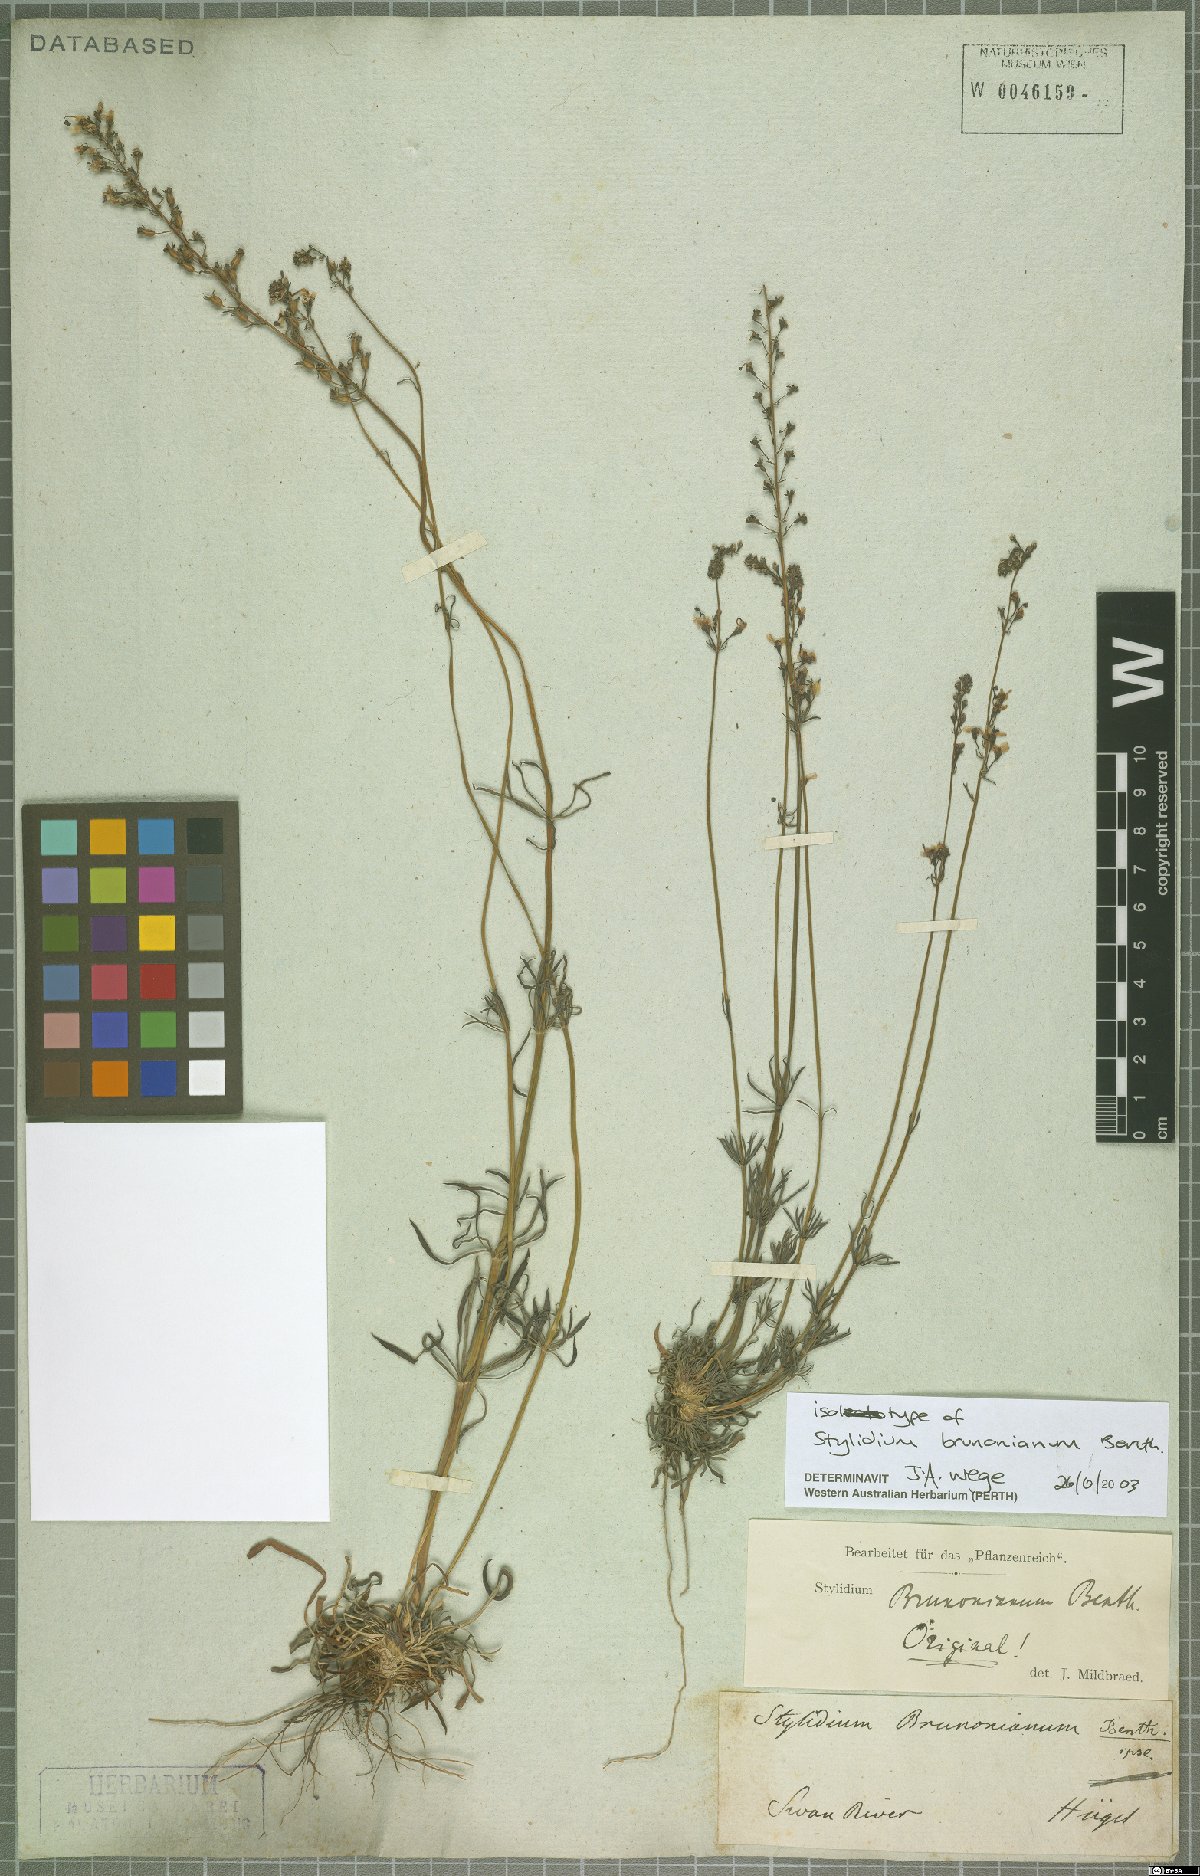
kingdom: Plantae
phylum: Tracheophyta
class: Magnoliopsida
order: Asterales
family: Stylidiaceae
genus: Stylidium
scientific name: Stylidium brunonianum
